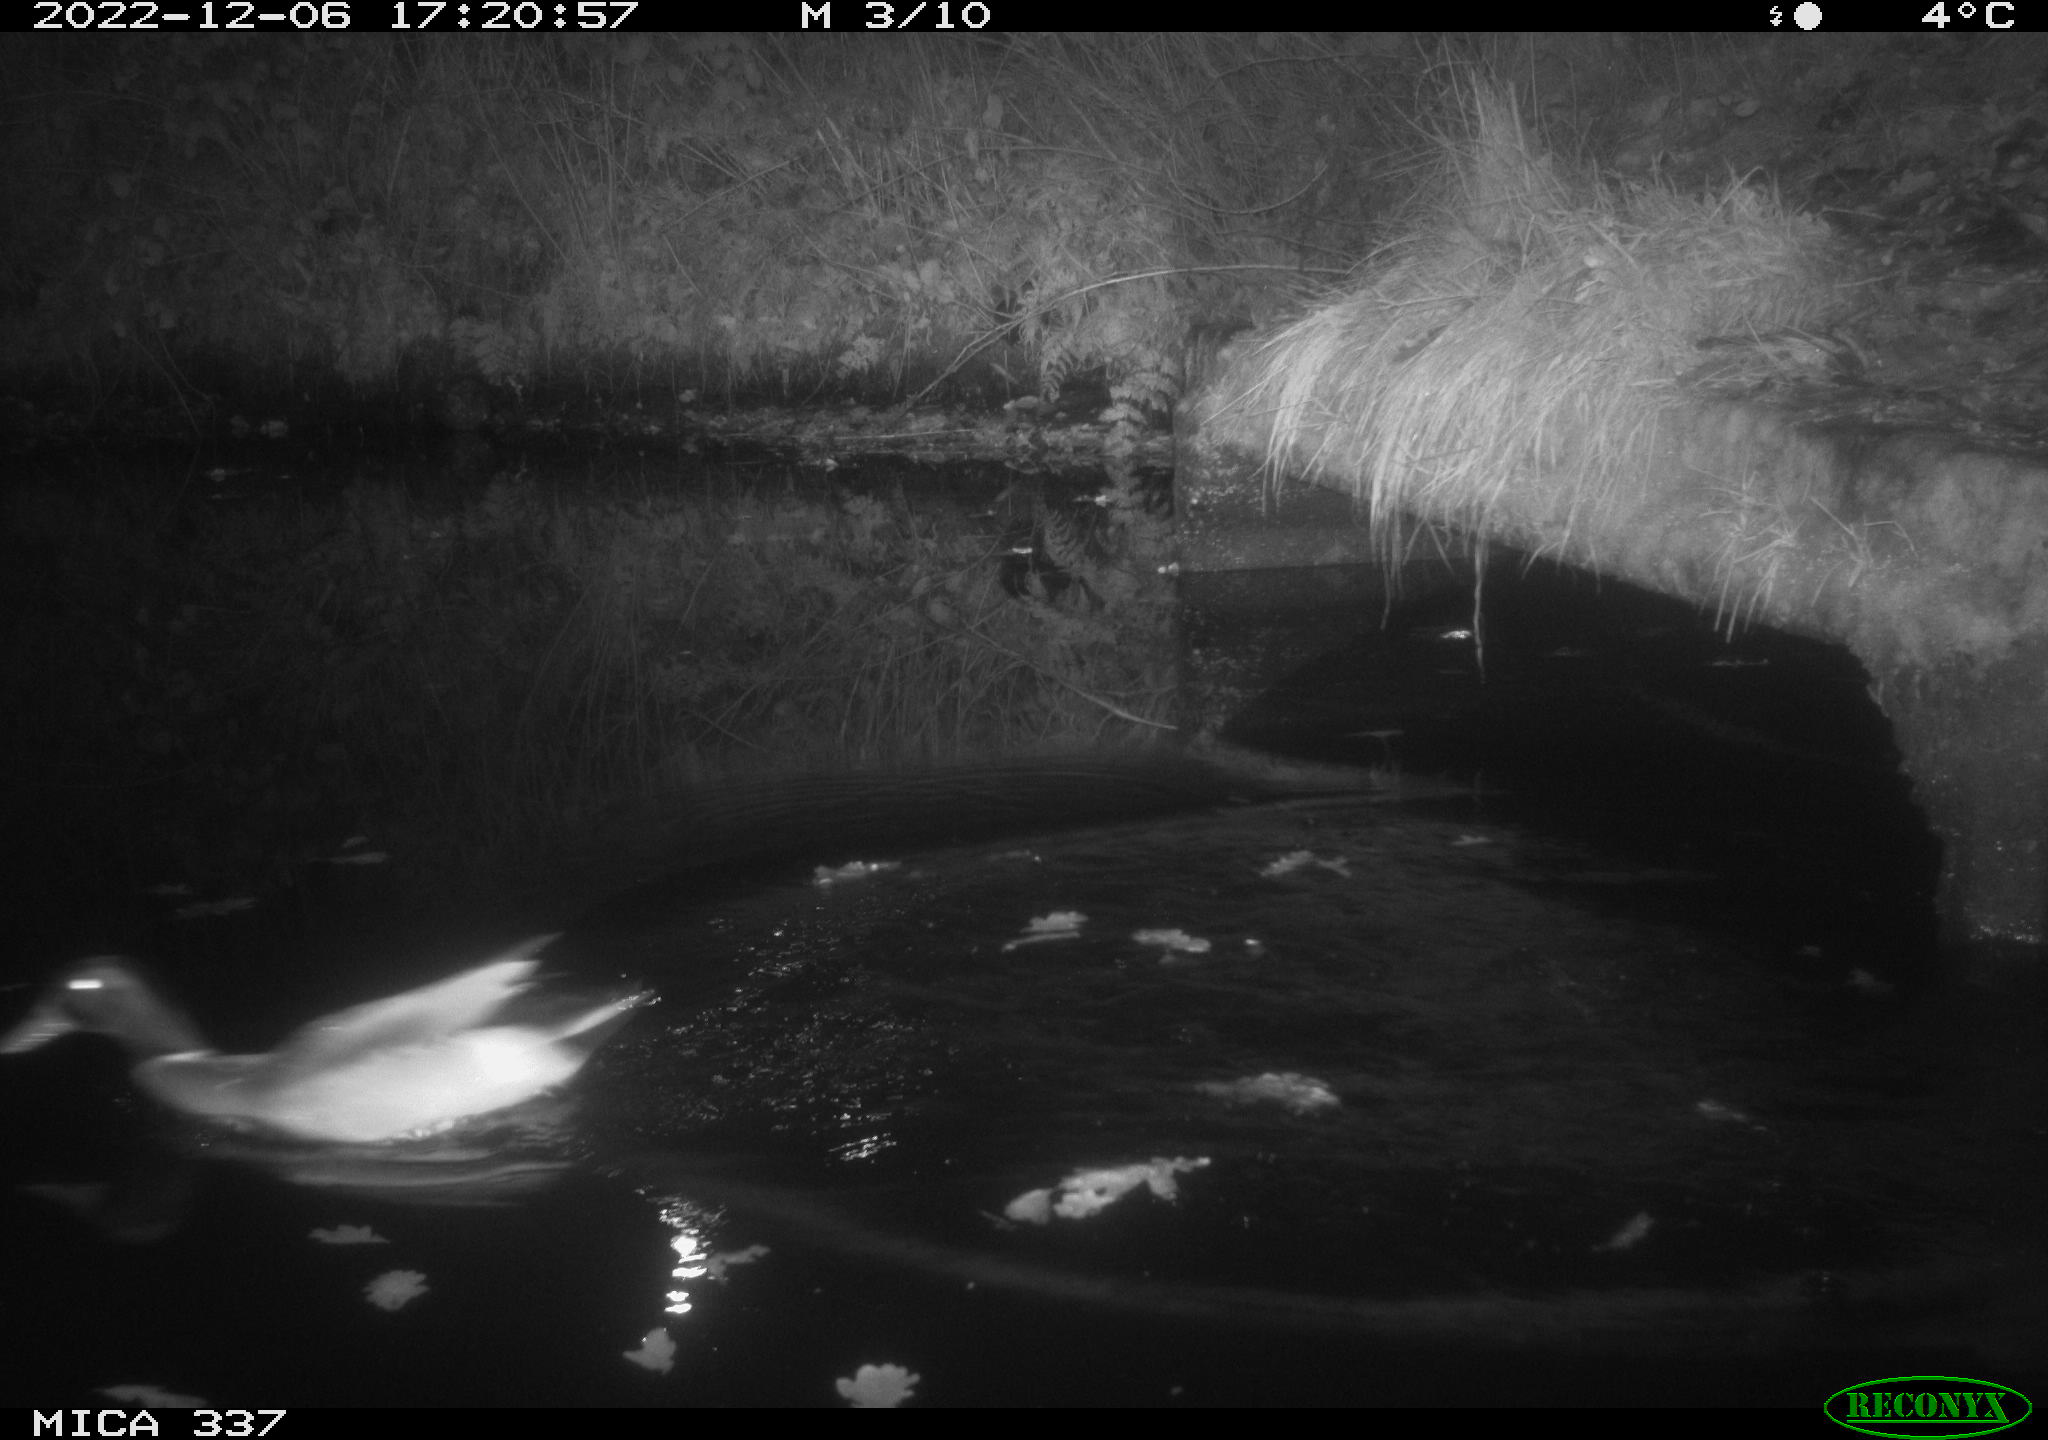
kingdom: Animalia
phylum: Chordata
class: Aves
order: Anseriformes
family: Anatidae
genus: Anas
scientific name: Anas
